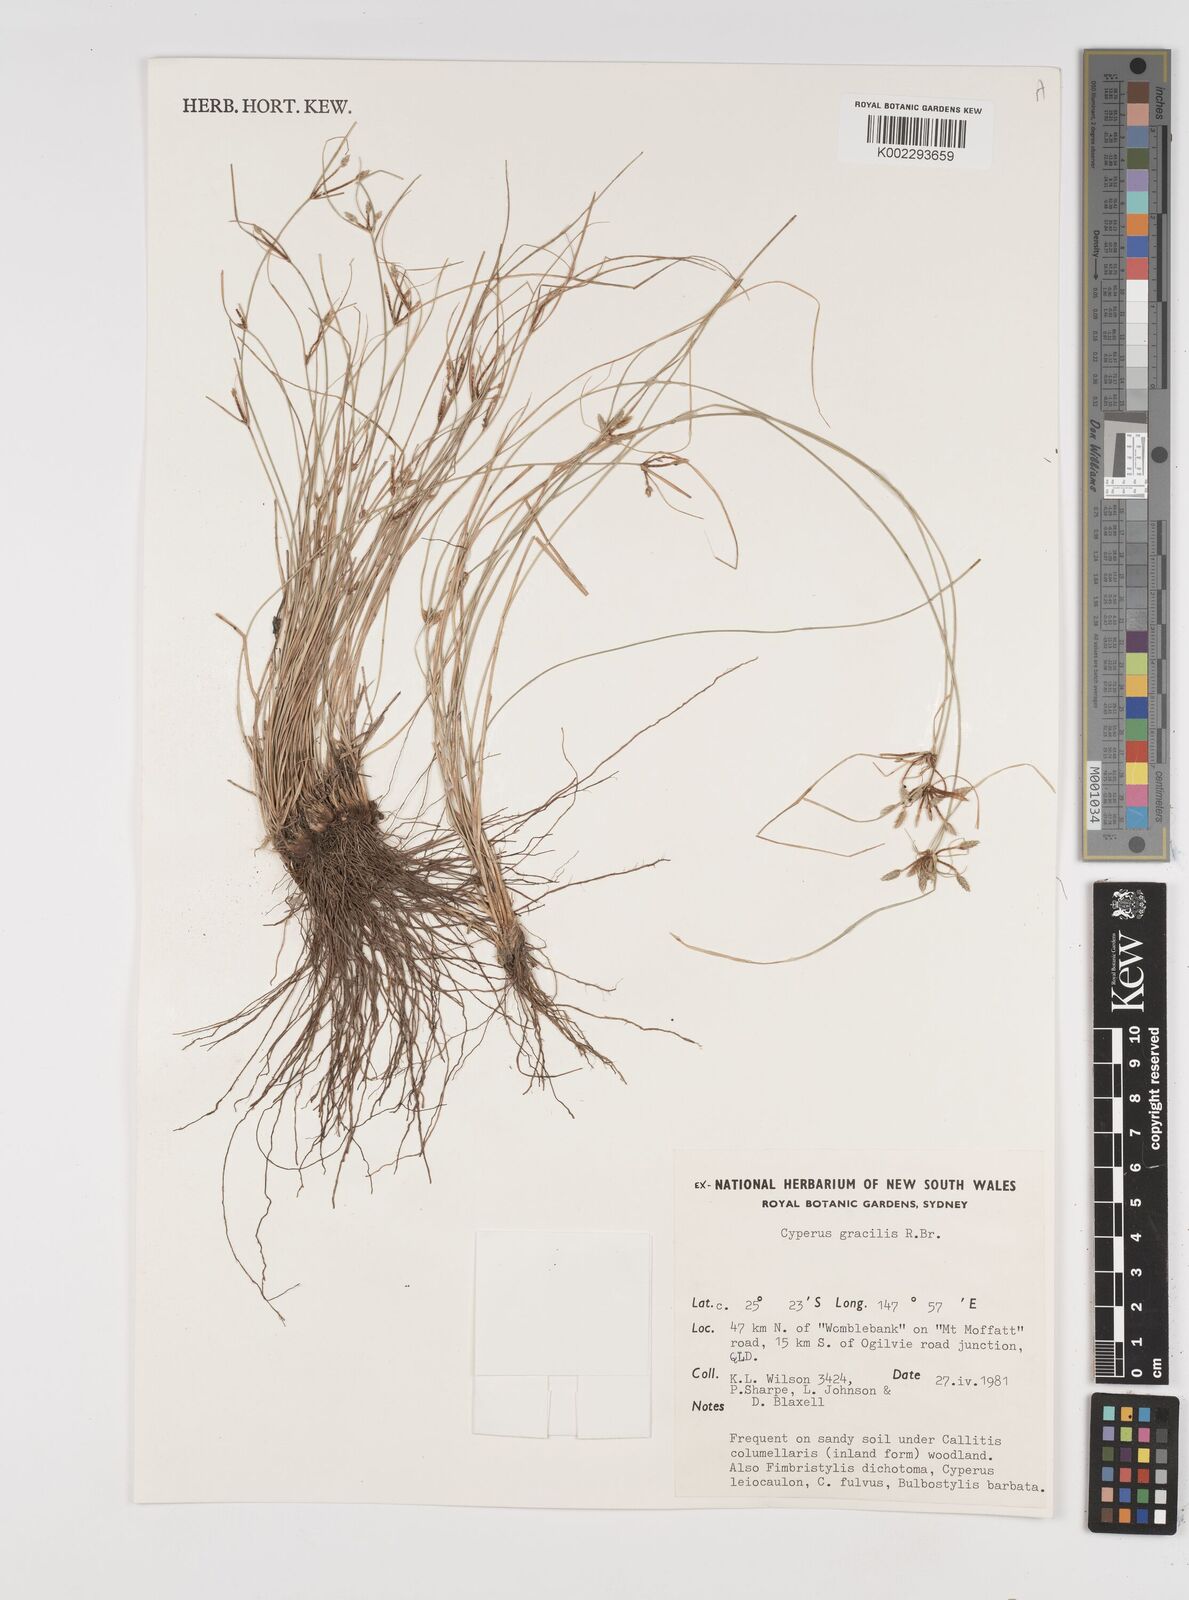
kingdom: Plantae
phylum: Tracheophyta
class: Liliopsida
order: Poales
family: Cyperaceae
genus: Cyperus
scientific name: Cyperus gracilis
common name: Slimjim flatsedge
